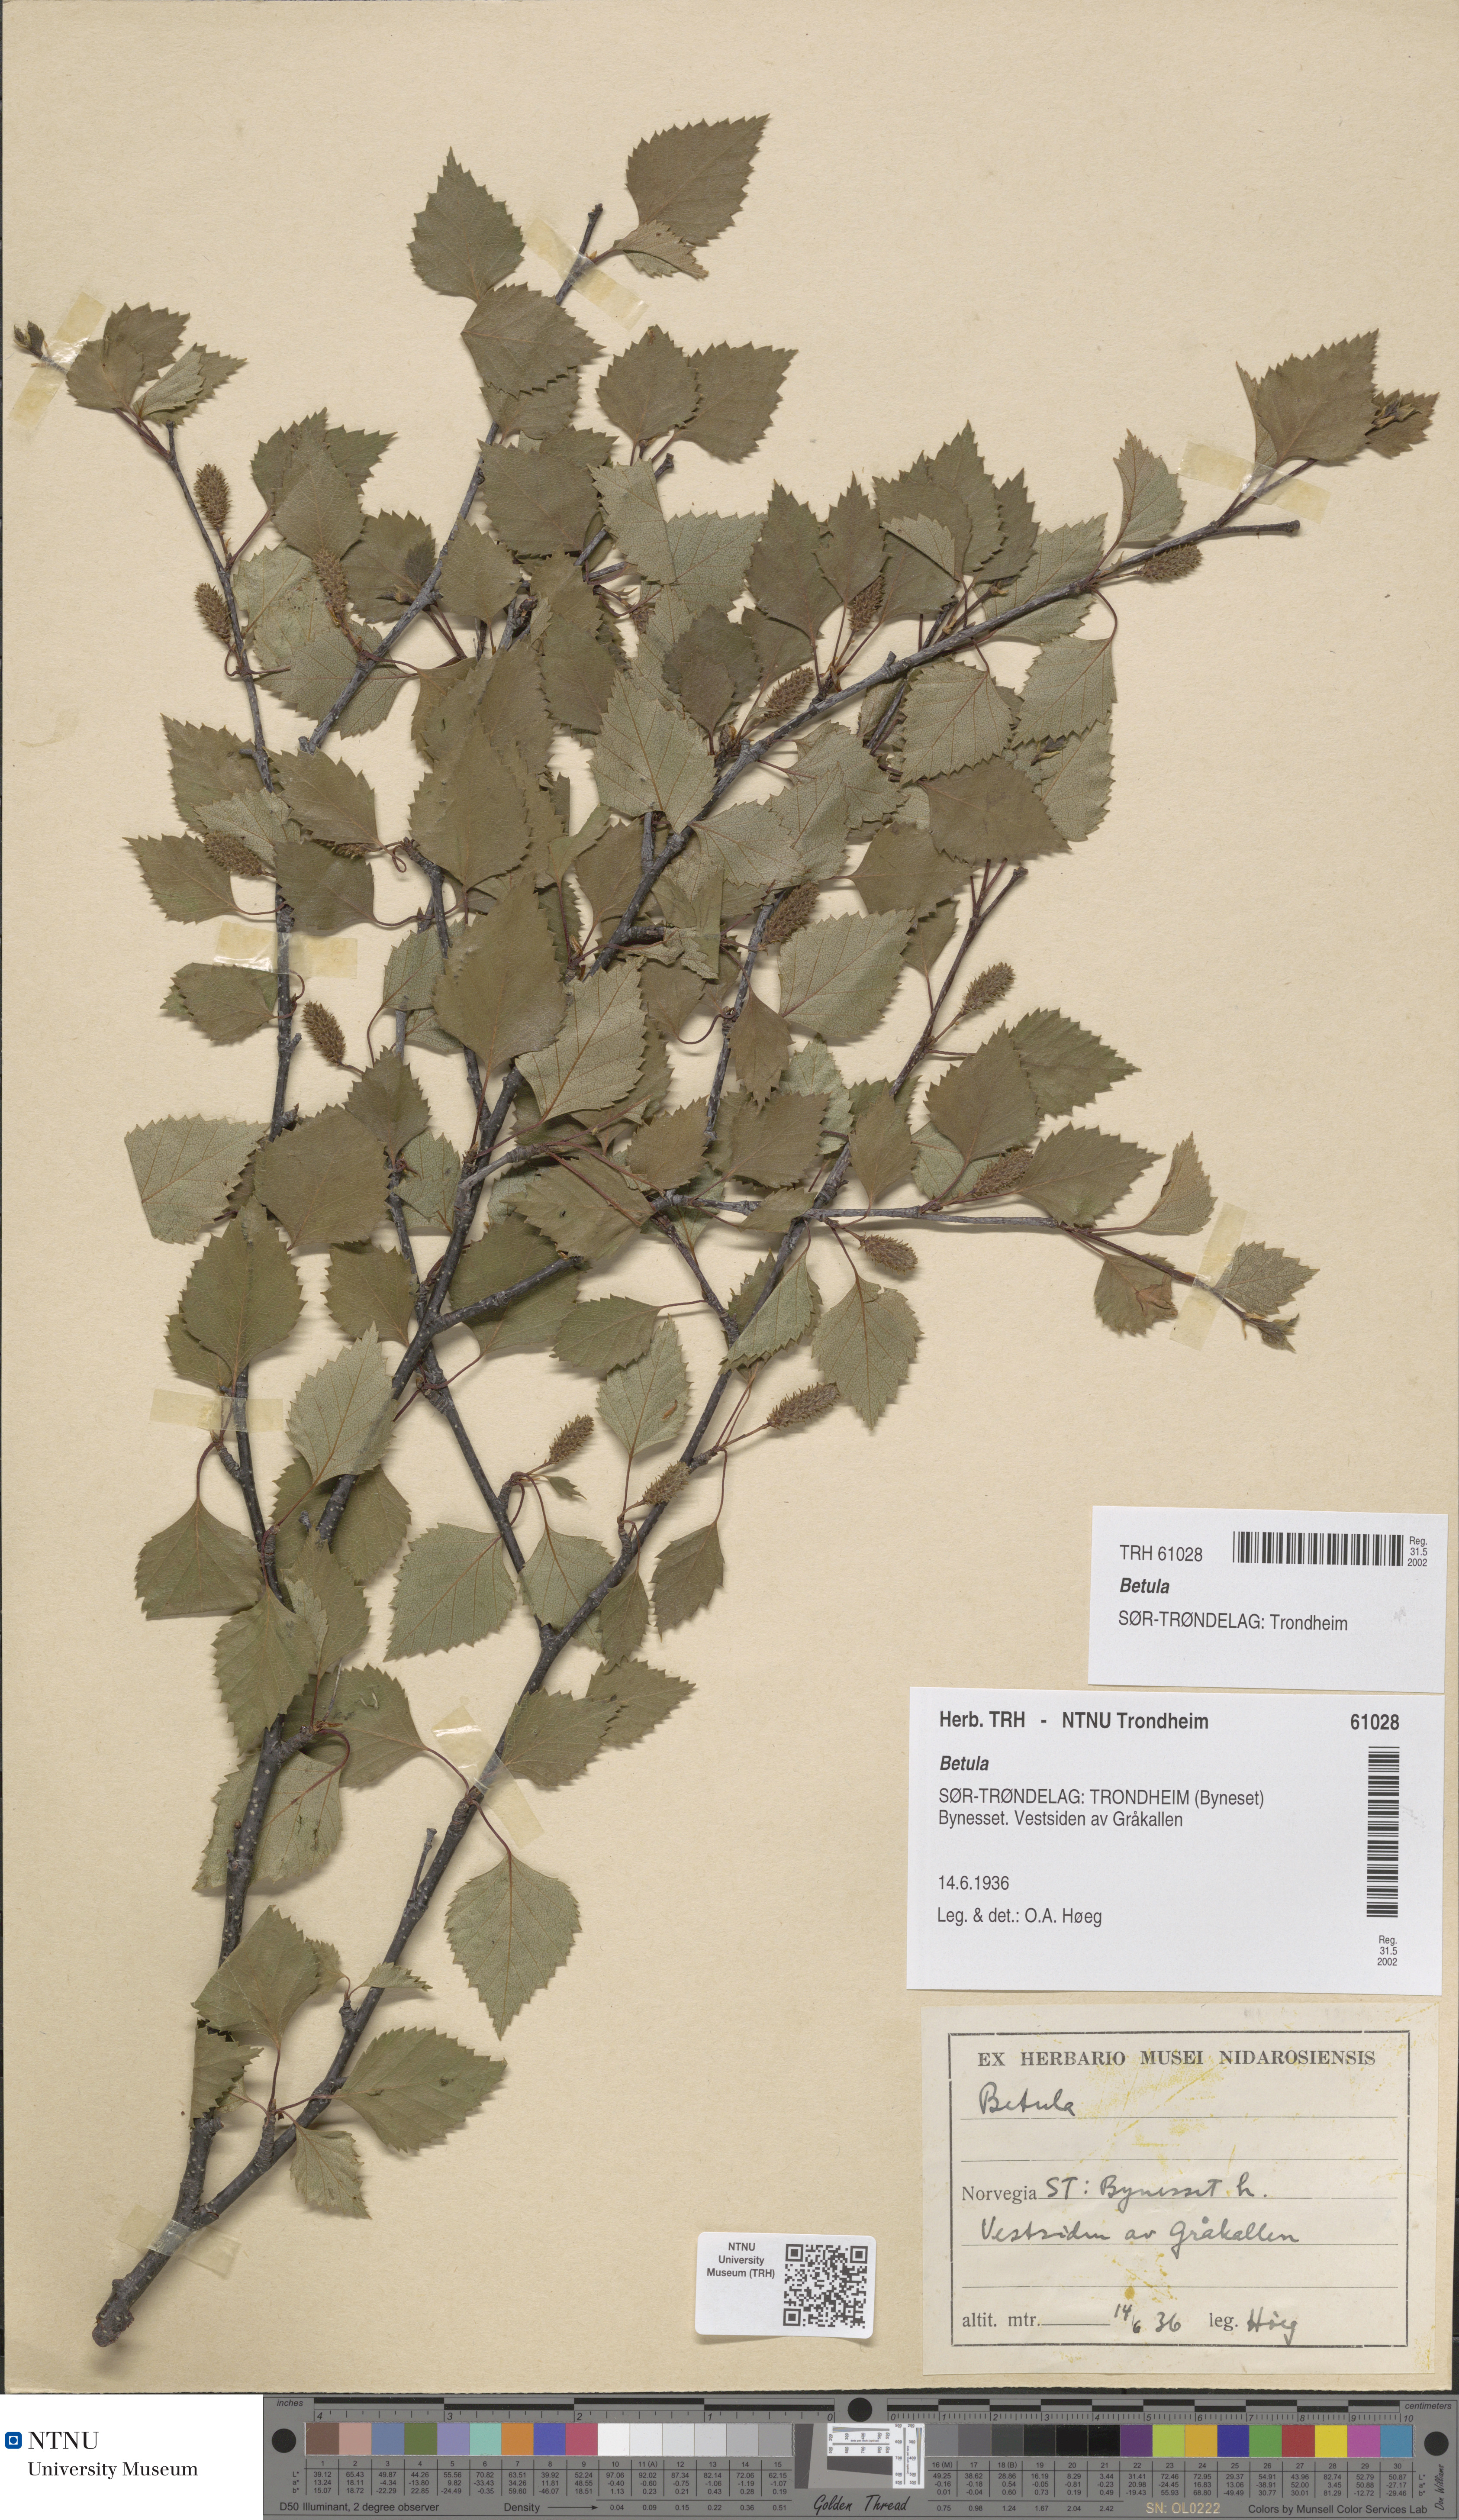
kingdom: Plantae
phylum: Tracheophyta
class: Magnoliopsida
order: Fagales
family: Betulaceae
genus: Betula
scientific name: Betula
